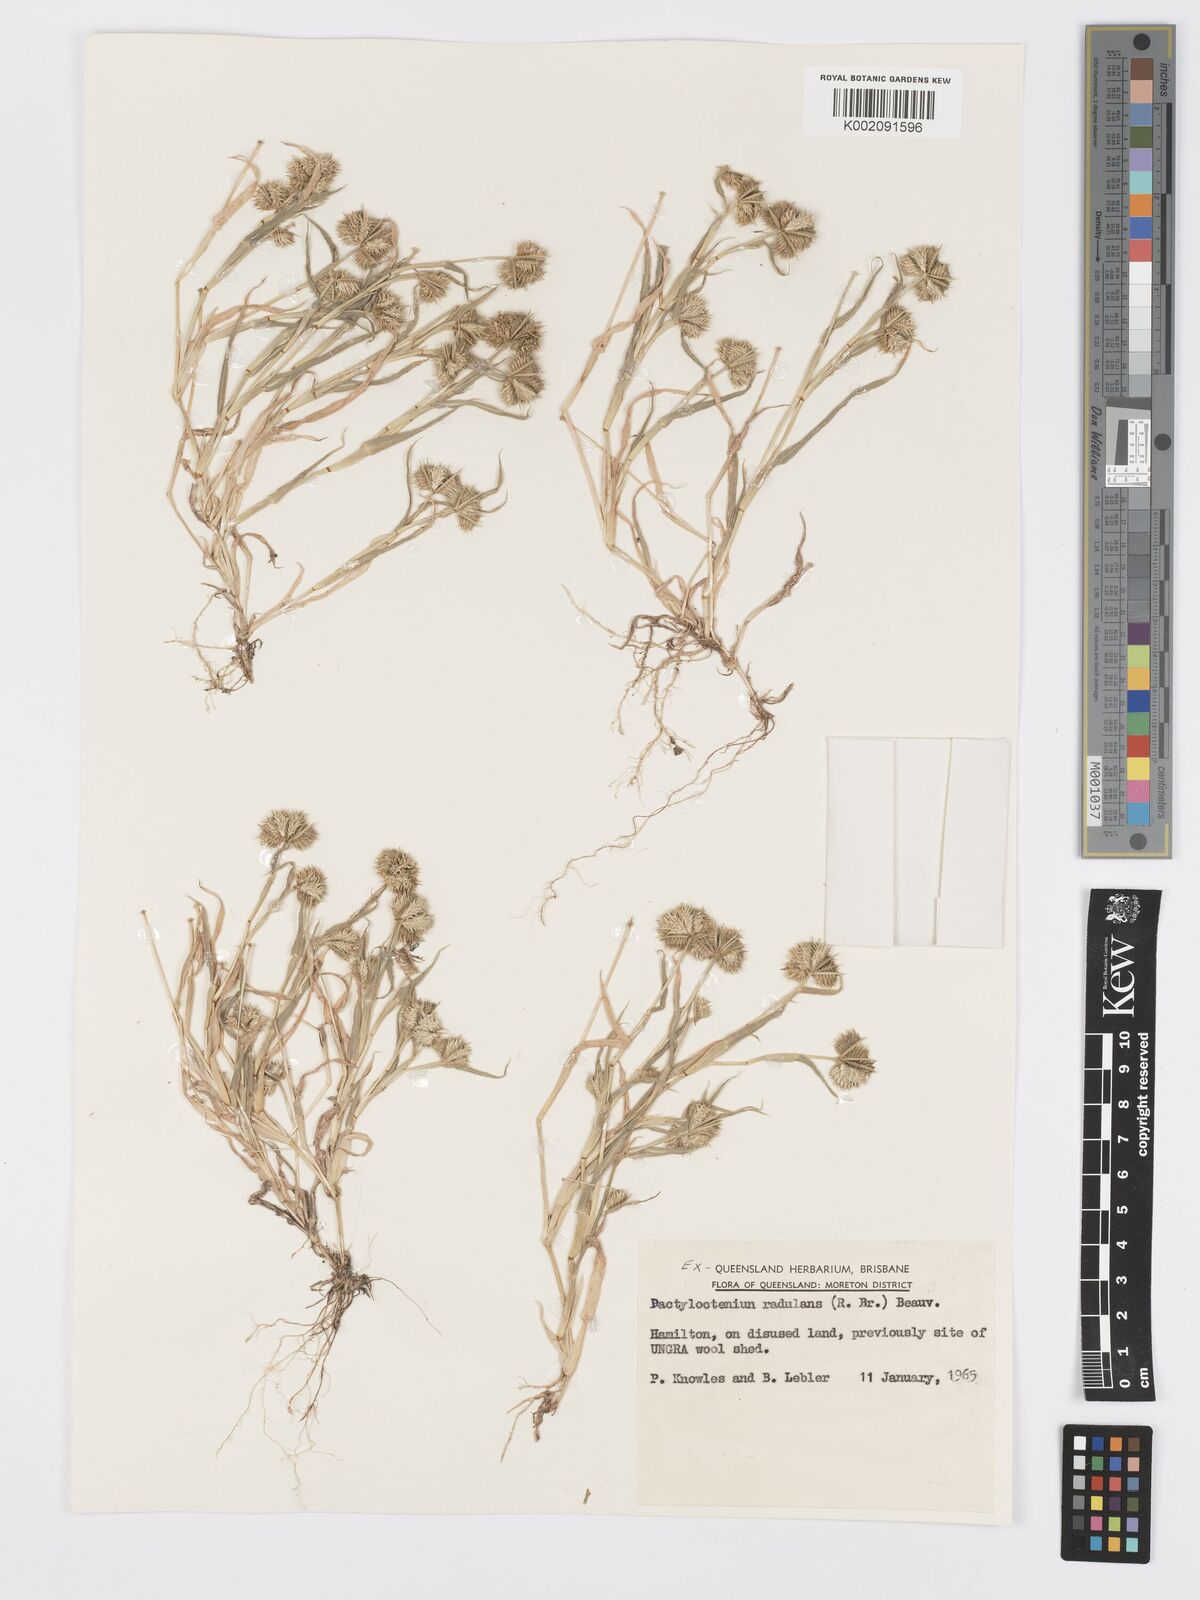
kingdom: Plantae
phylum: Tracheophyta
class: Liliopsida
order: Poales
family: Poaceae
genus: Dactyloctenium
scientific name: Dactyloctenium radulans
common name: Button-grass
